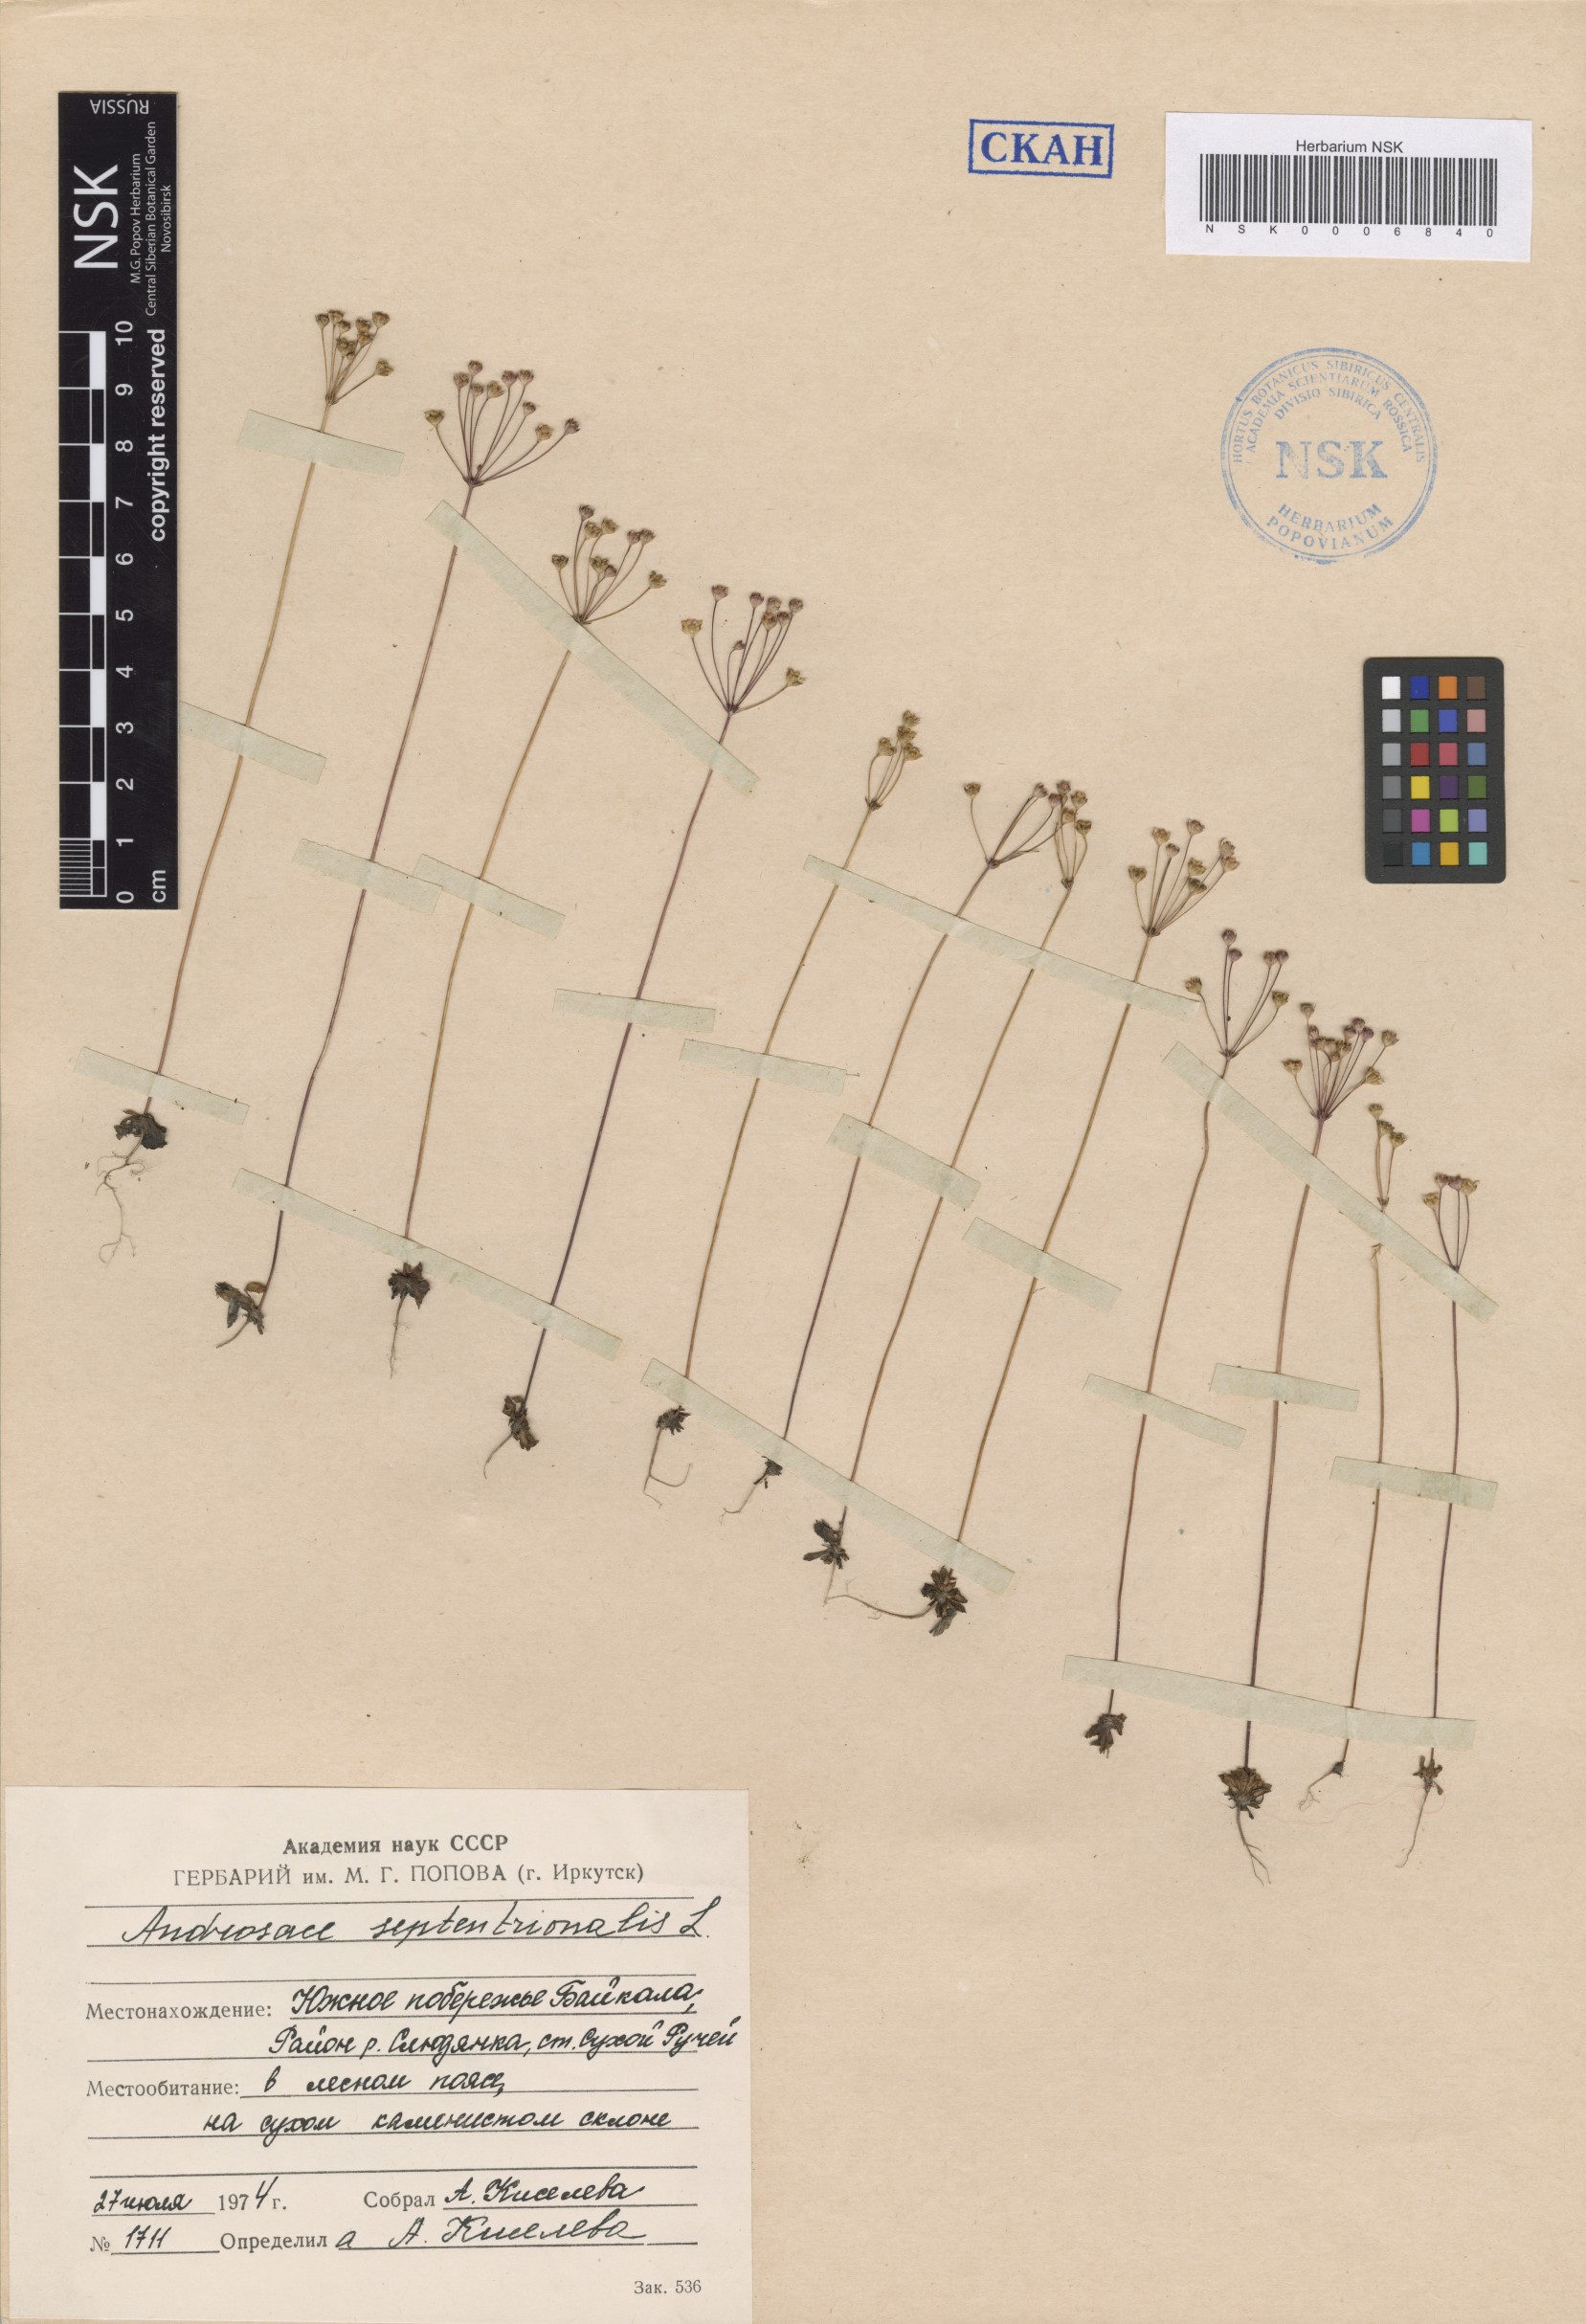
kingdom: Plantae
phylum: Tracheophyta
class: Magnoliopsida
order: Ericales
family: Primulaceae
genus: Androsace
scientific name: Androsace septentrionalis
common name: Hairy northern fairy-candelabra
